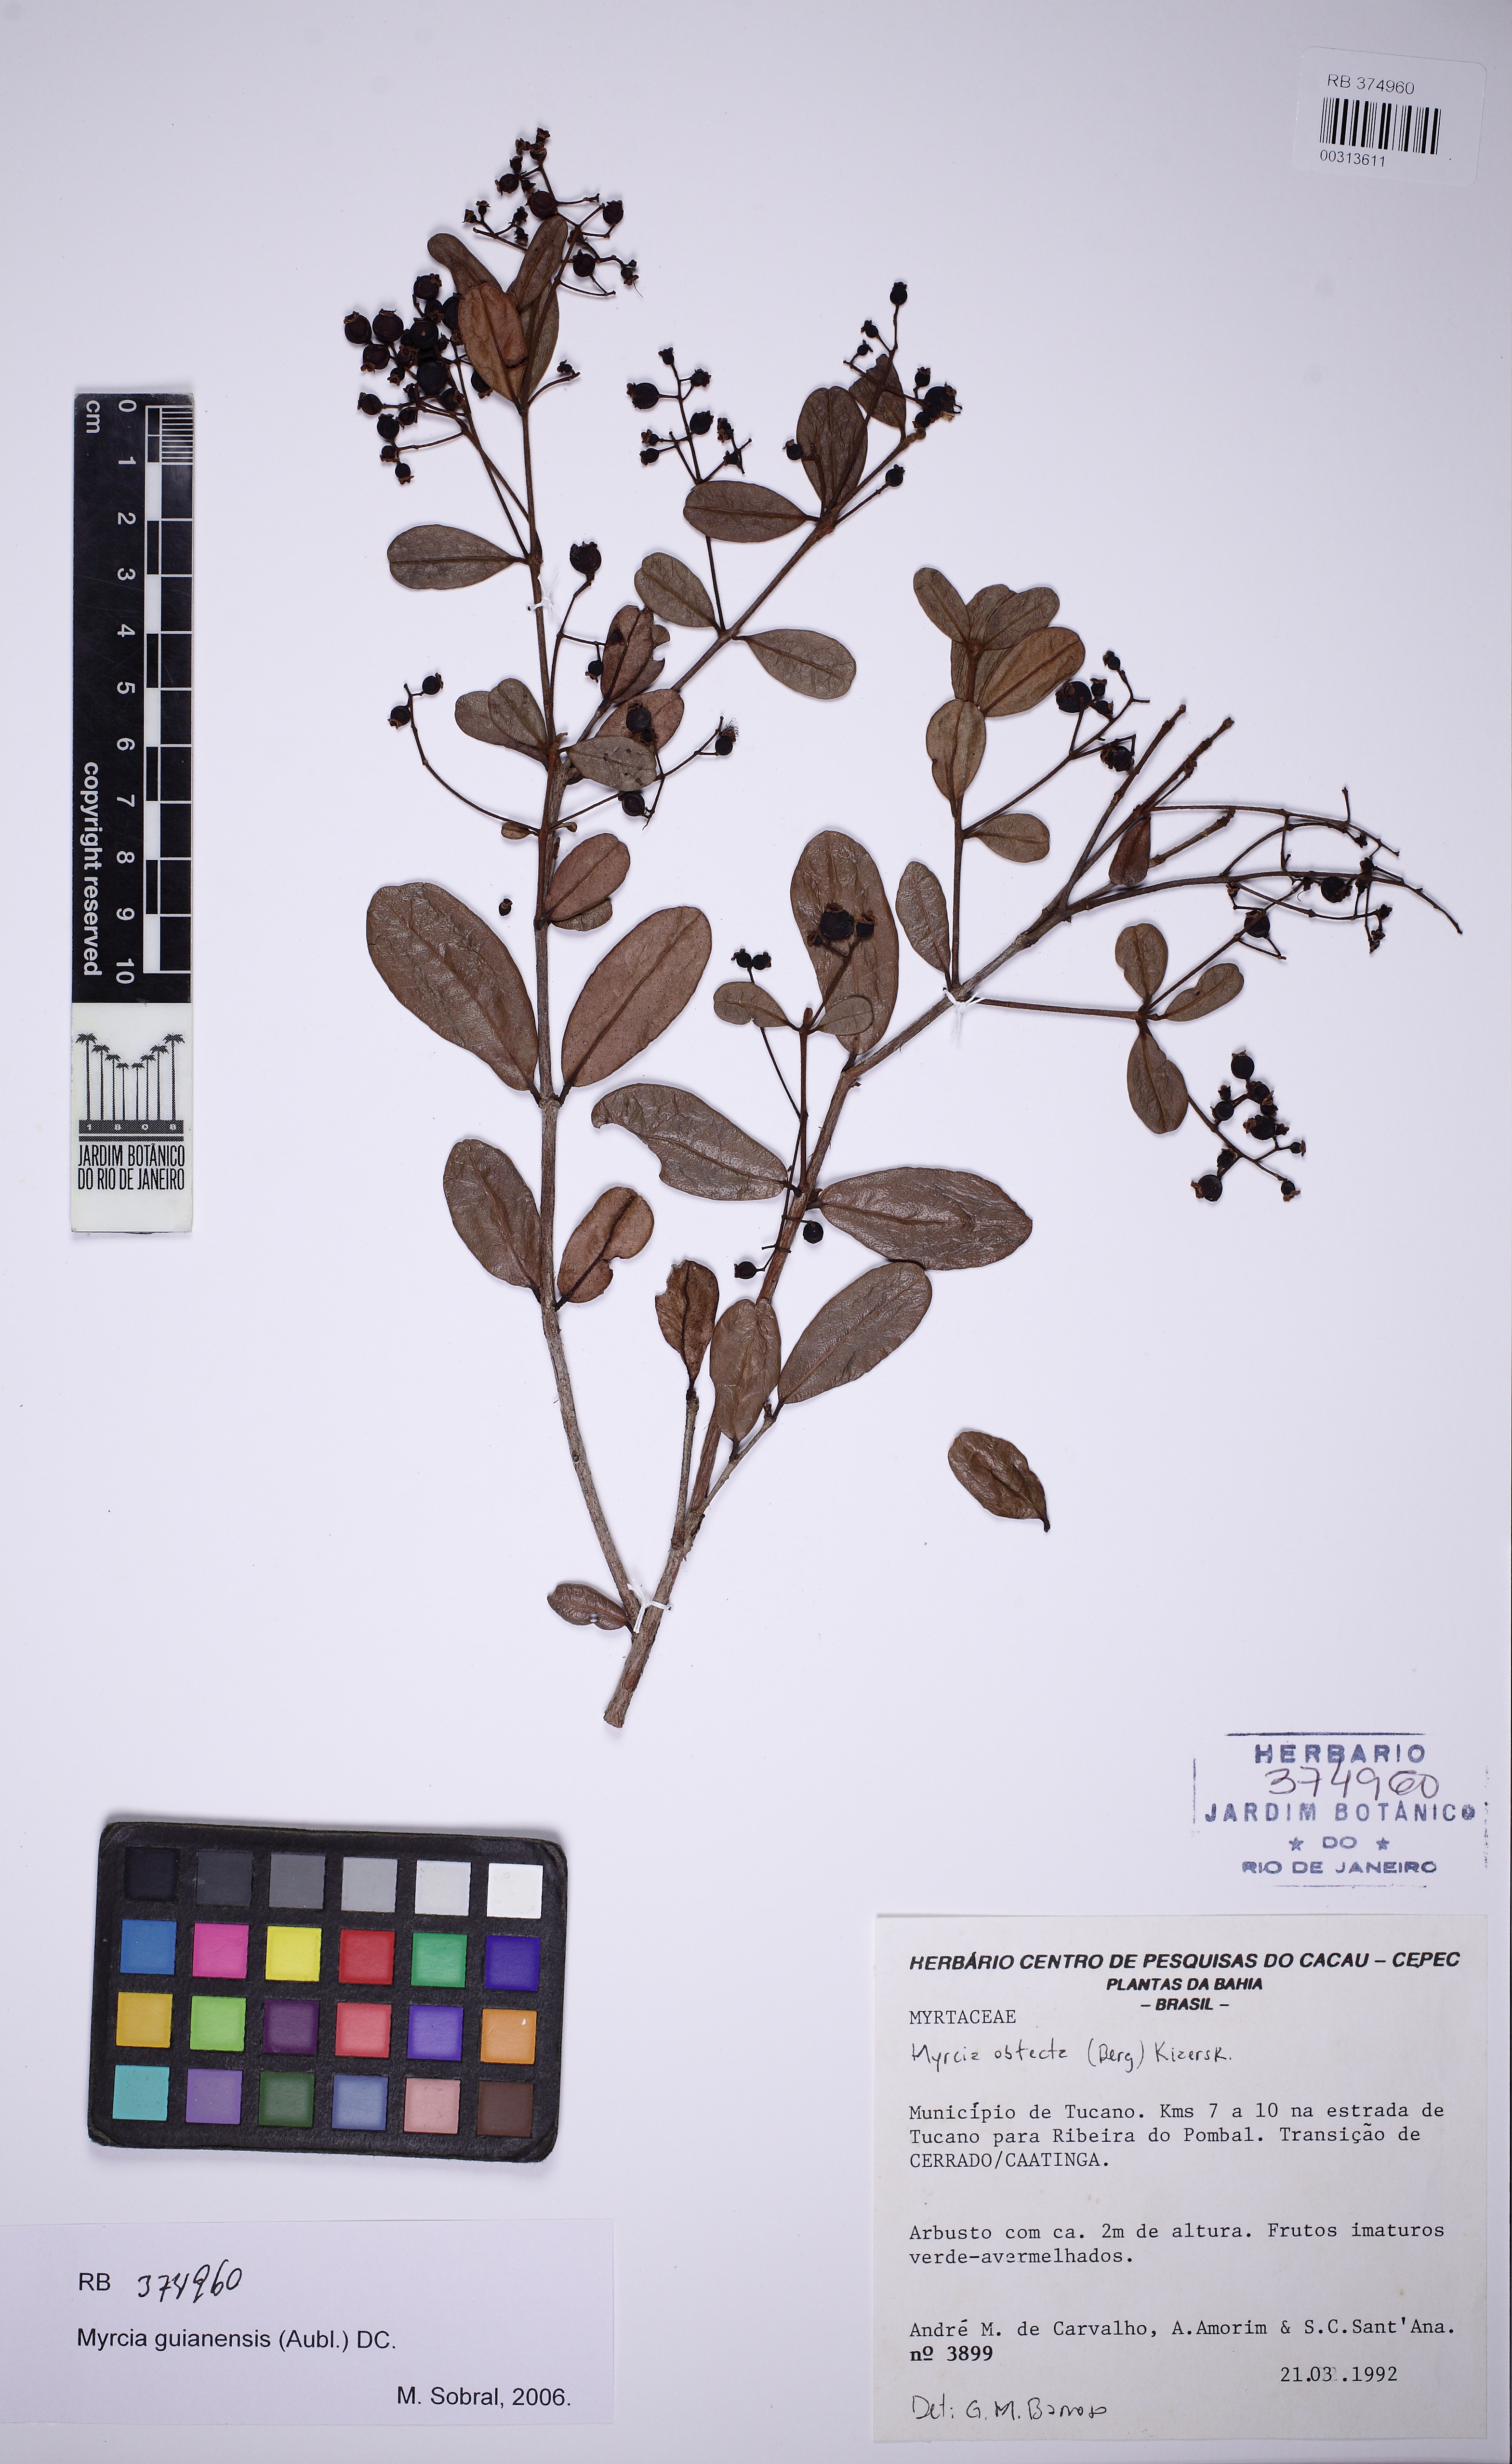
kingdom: Plantae
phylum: Tracheophyta
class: Magnoliopsida
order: Myrtales
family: Myrtaceae
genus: Myrcia
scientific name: Myrcia guianensis
